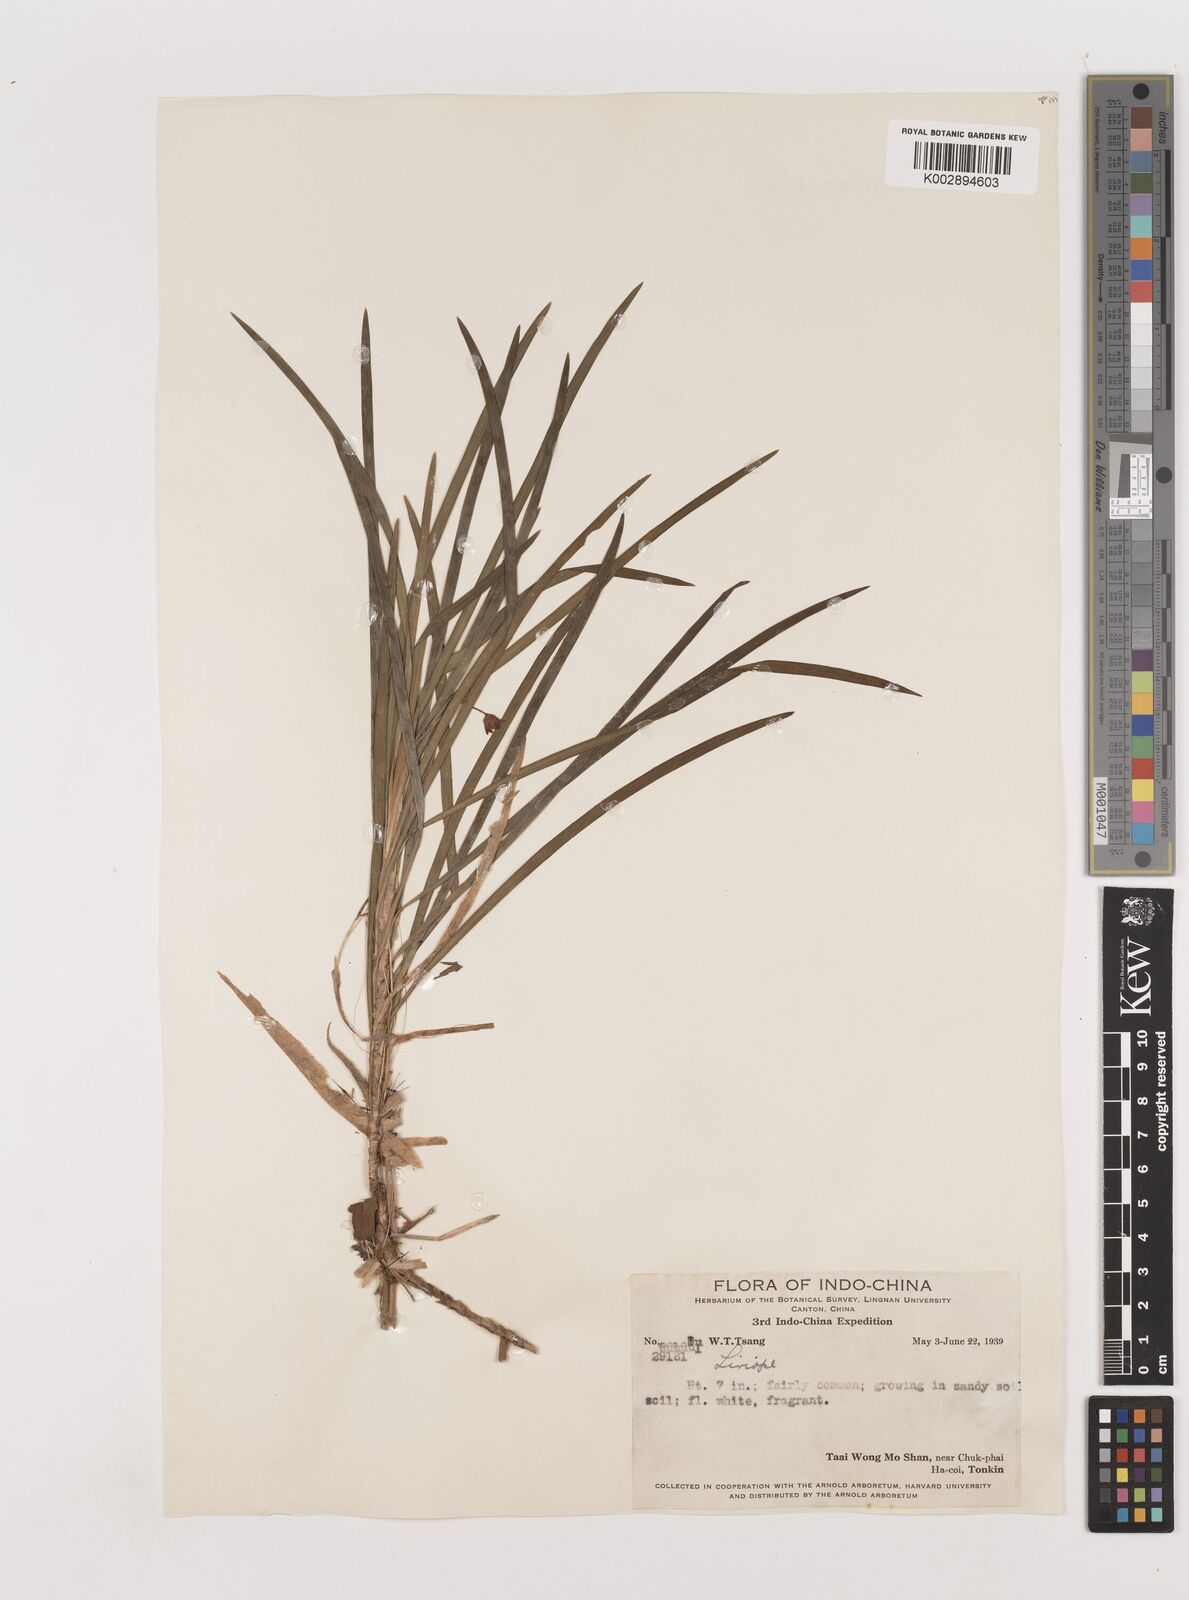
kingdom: Plantae
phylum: Tracheophyta
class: Liliopsida
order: Asparagales
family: Asparagaceae
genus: Liriope
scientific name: Liriope
